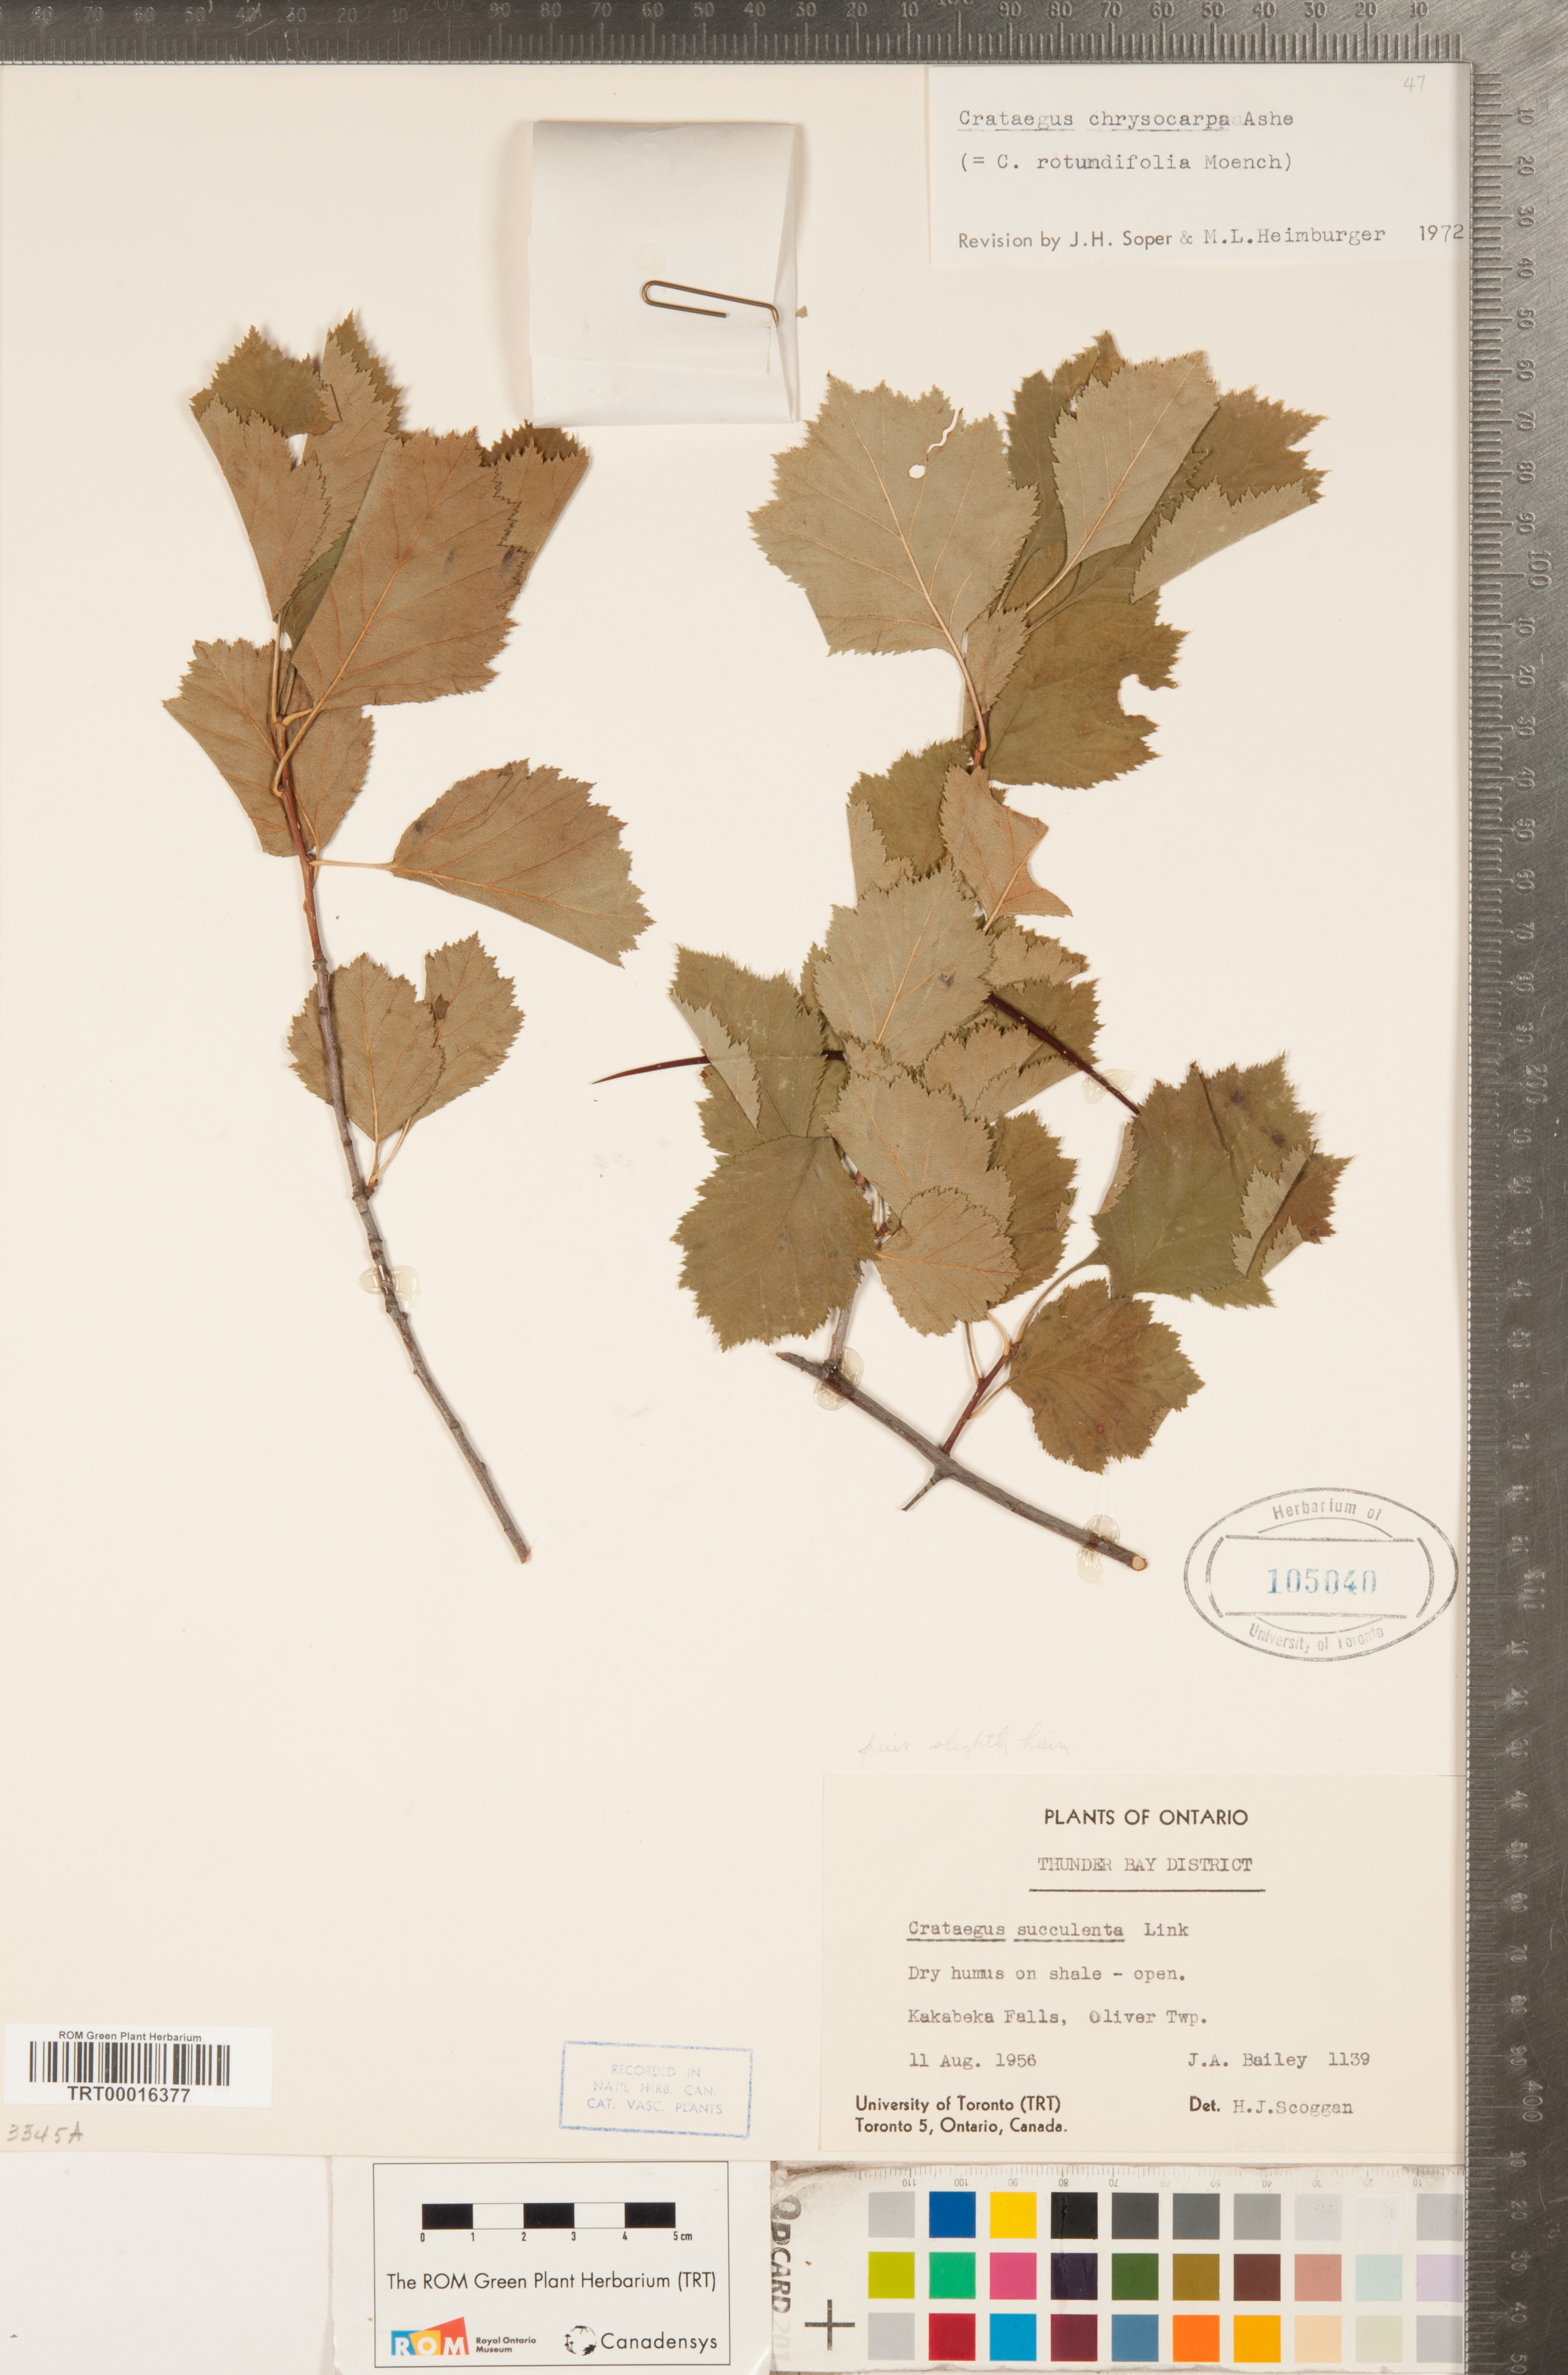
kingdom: Plantae
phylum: Tracheophyta
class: Magnoliopsida
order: Rosales
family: Rosaceae
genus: Crataegus
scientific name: Crataegus chrysocarpa
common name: Fire-berry hawthorn
